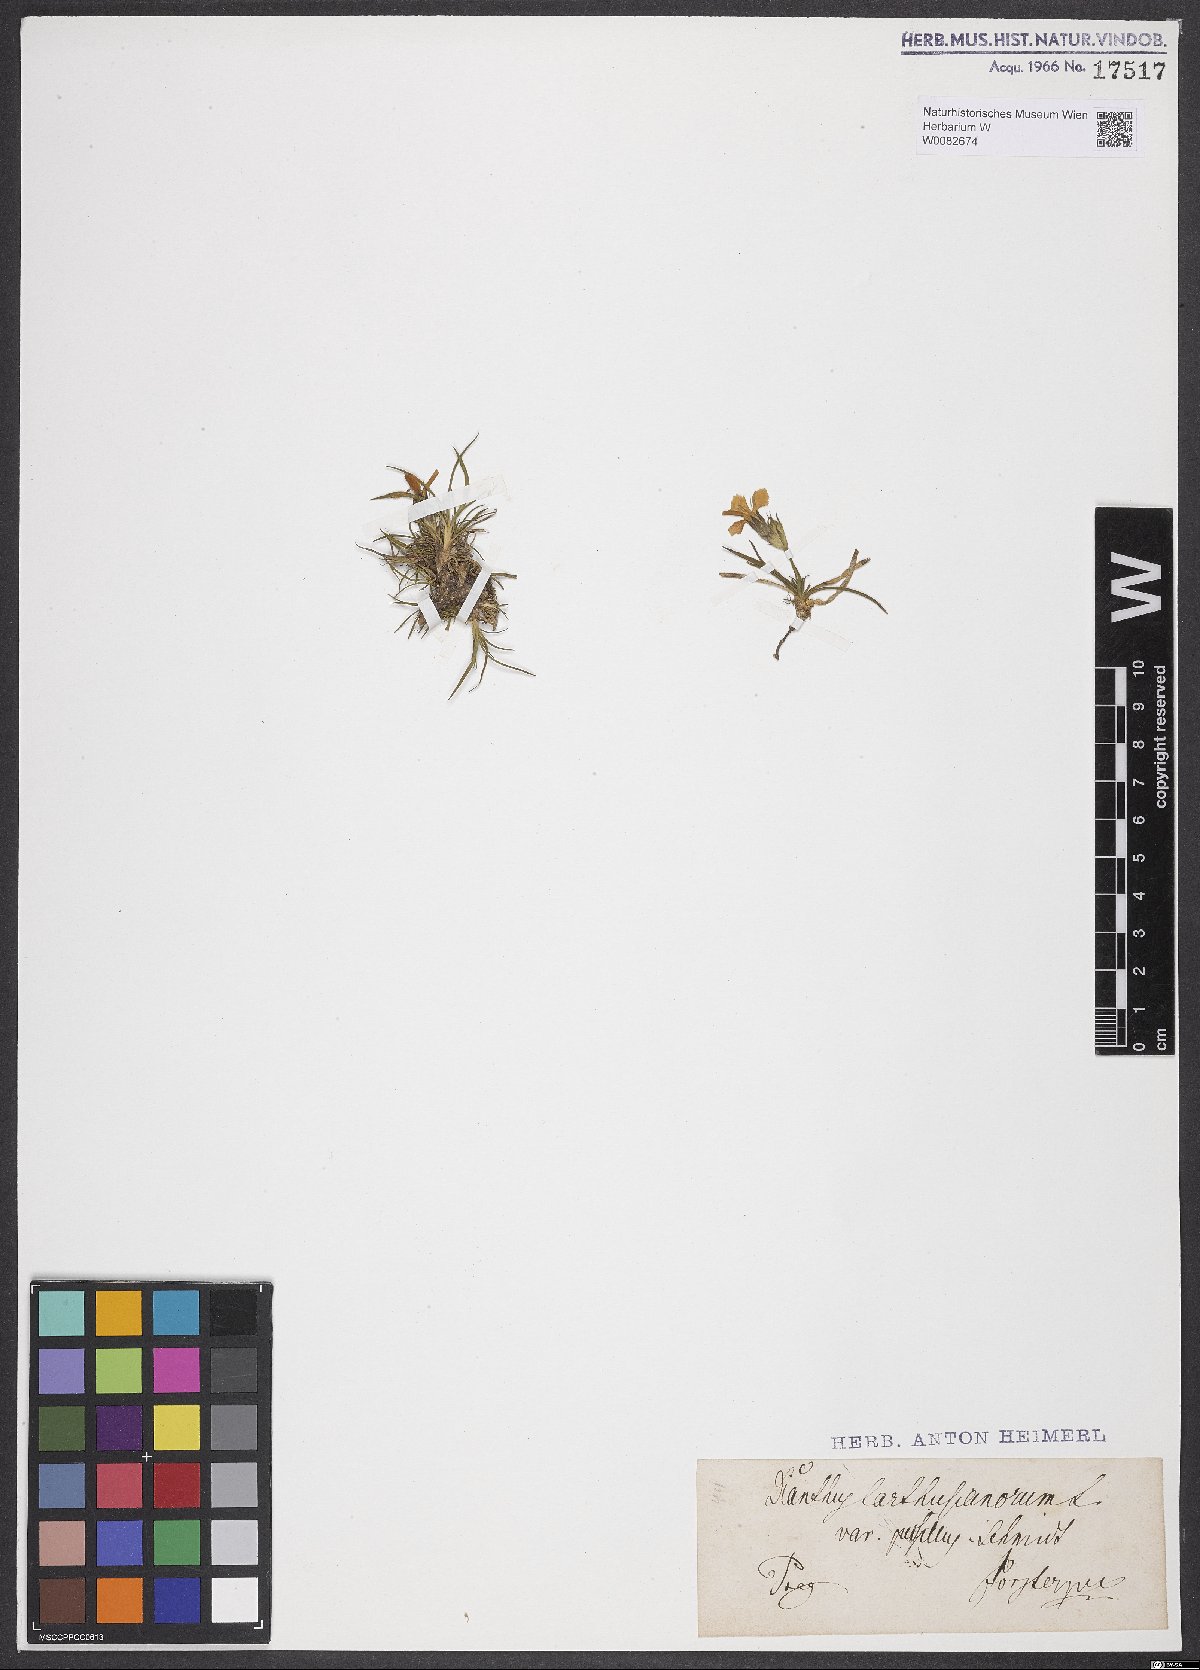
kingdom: Plantae
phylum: Tracheophyta
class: Magnoliopsida
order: Caryophyllales
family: Caryophyllaceae
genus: Dianthus
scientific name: Dianthus carthusianorum
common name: Carthusian pink
